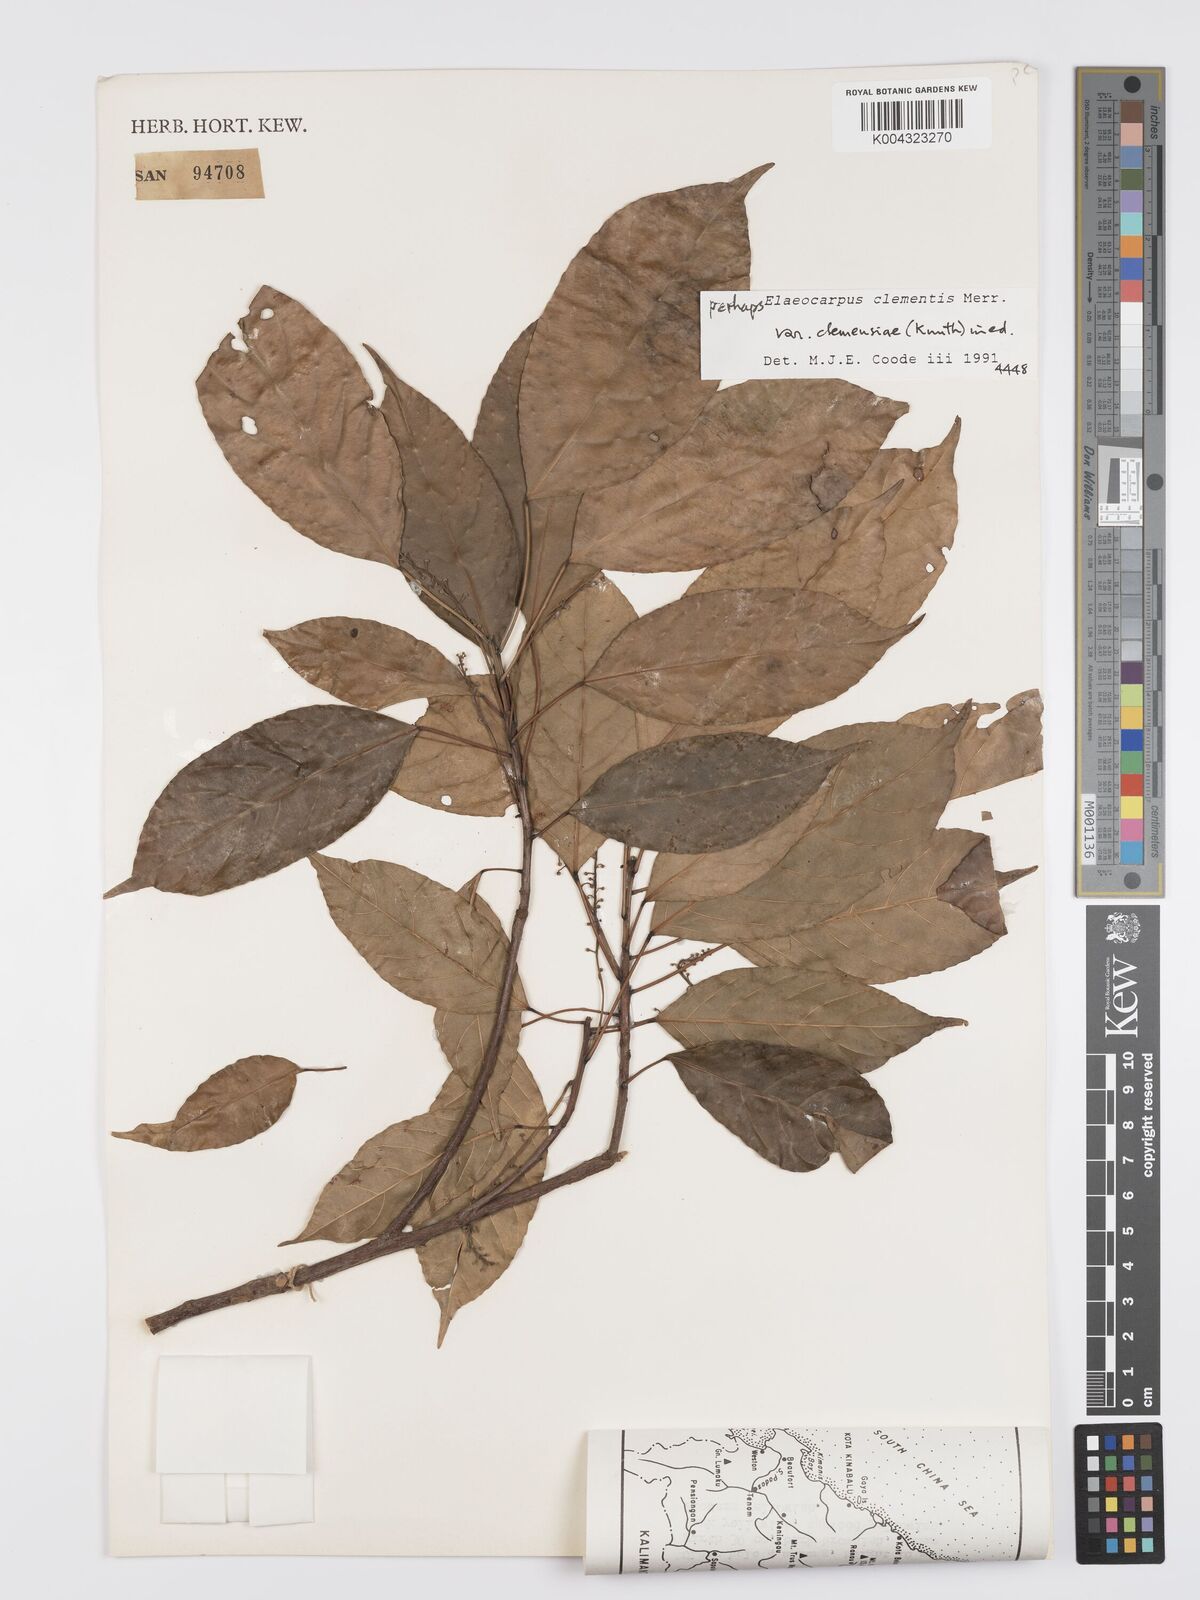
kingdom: Plantae
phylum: Tracheophyta
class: Magnoliopsida
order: Oxalidales
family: Elaeocarpaceae
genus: Elaeocarpus
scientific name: Elaeocarpus clementis
